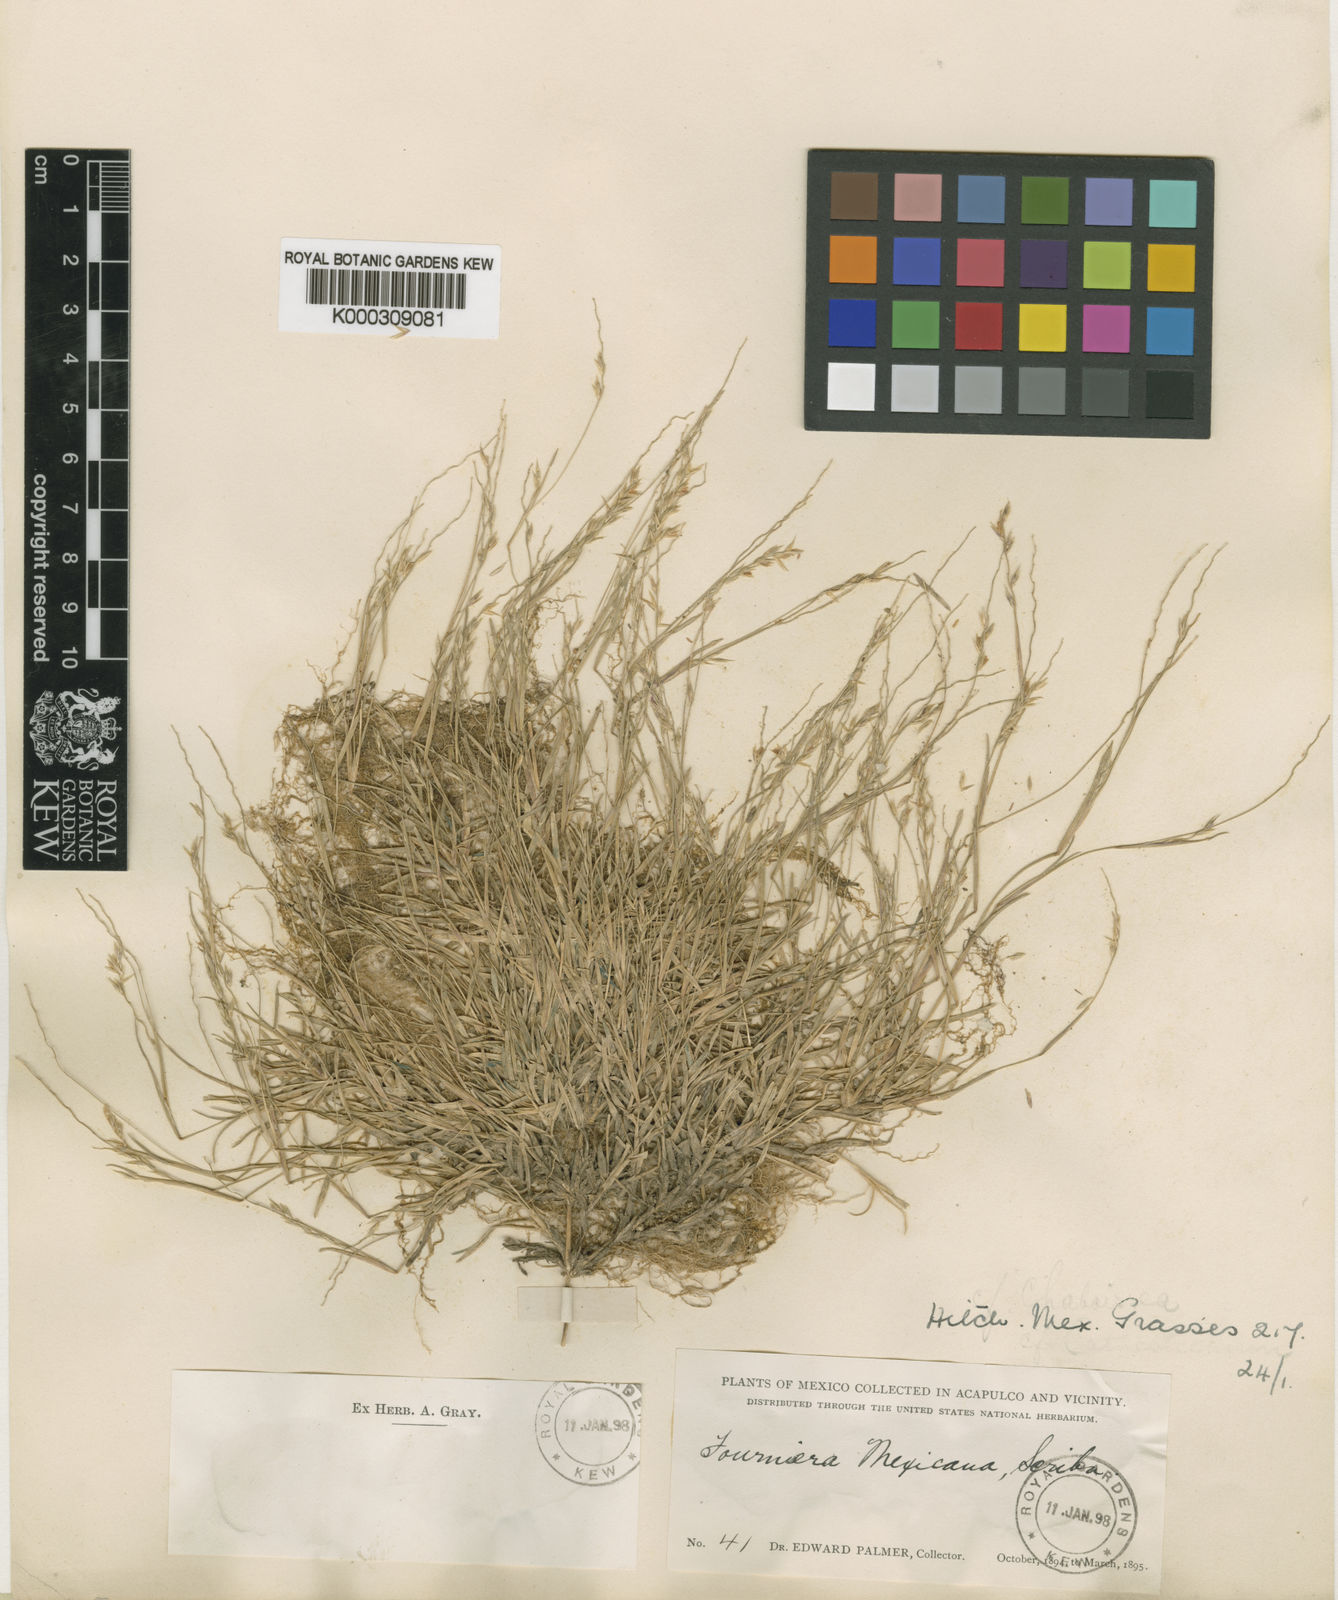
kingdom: Plantae
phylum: Tracheophyta
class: Liliopsida
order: Poales
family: Poaceae
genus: Bouteloua
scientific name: Bouteloua mexicana
